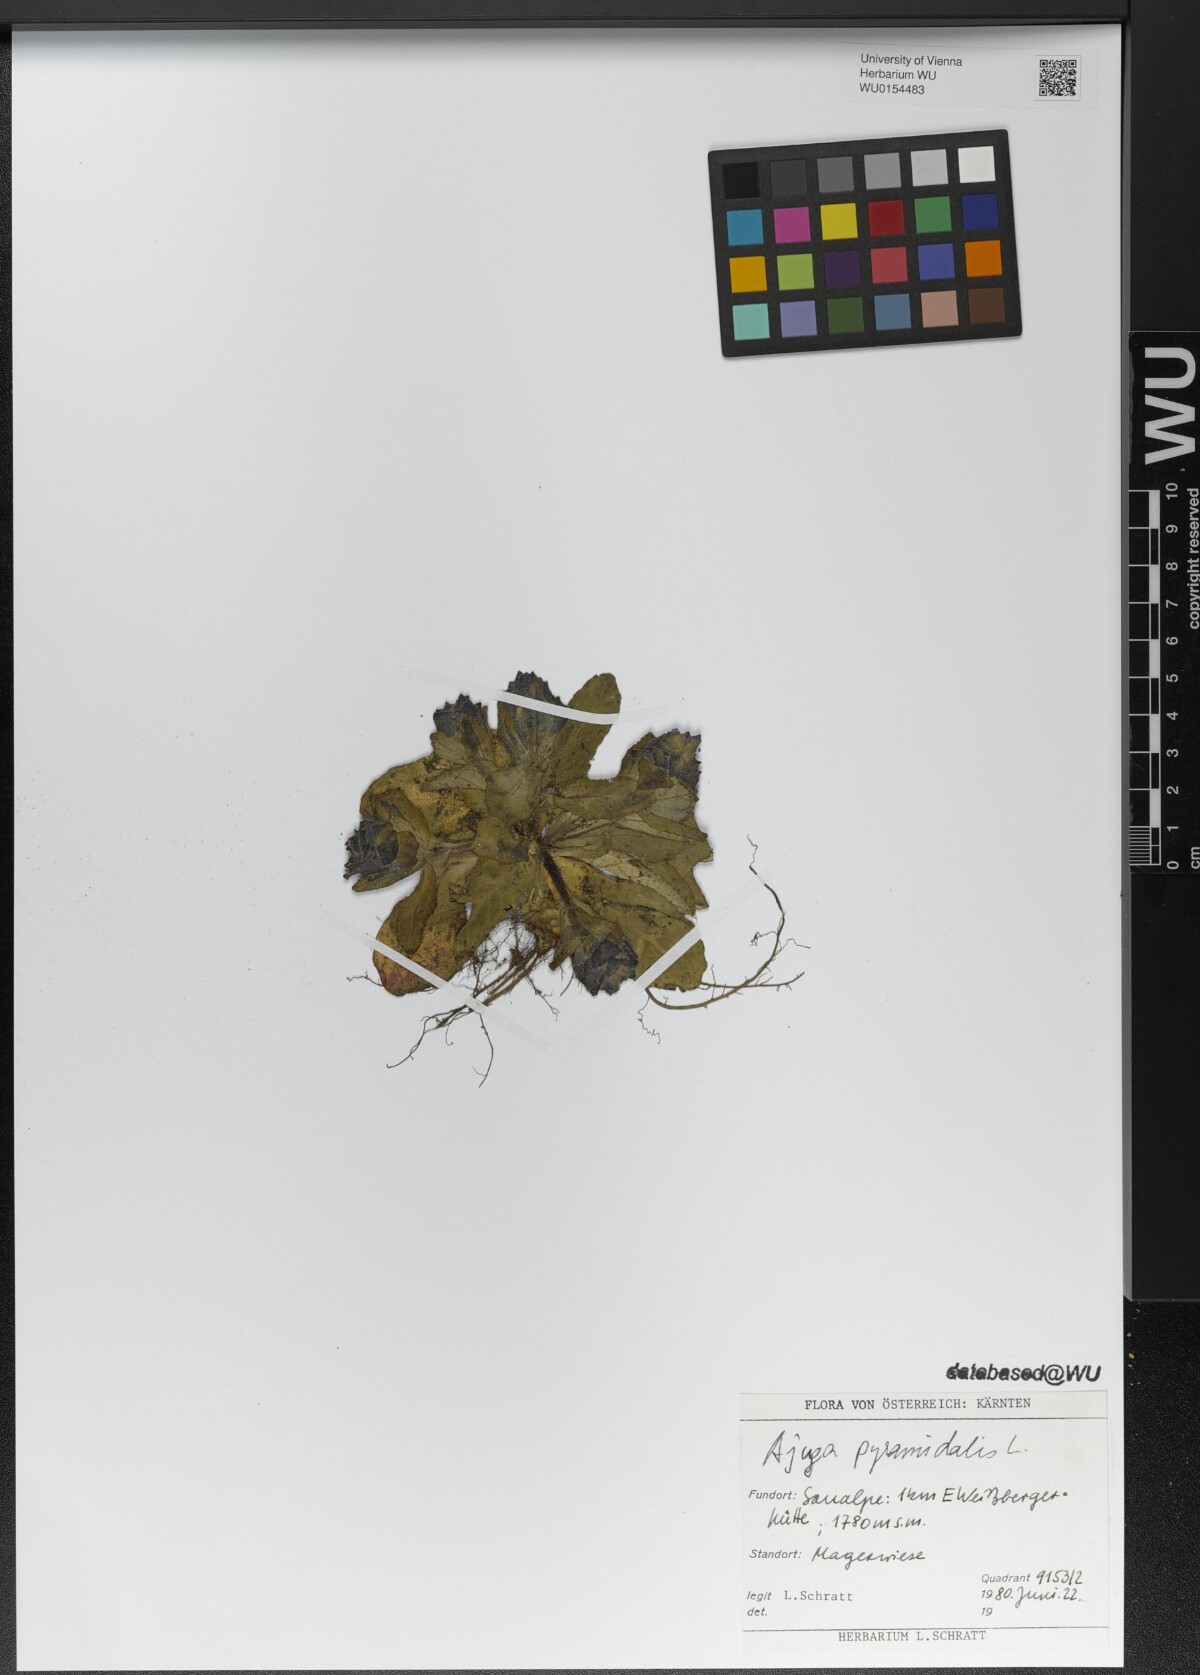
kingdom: Plantae
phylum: Tracheophyta
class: Magnoliopsida
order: Lamiales
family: Lamiaceae
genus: Ajuga
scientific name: Ajuga pyramidalis
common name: Pyramid bugle
